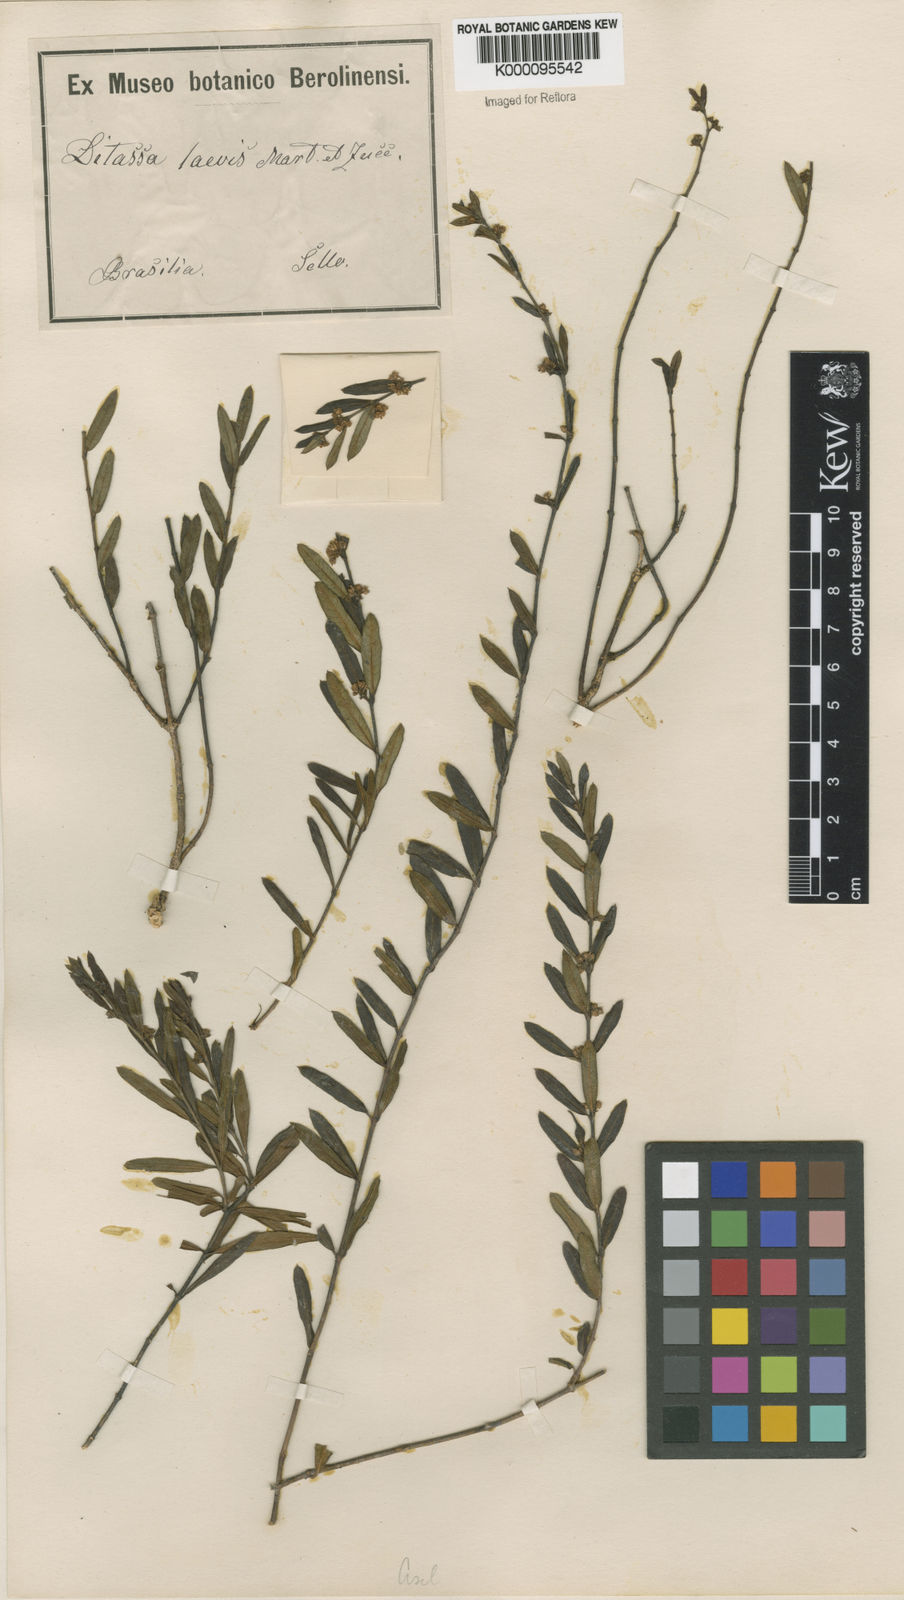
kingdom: Plantae
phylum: Tracheophyta
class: Magnoliopsida
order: Gentianales
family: Apocynaceae
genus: Ditassa
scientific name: Ditassa laevis
